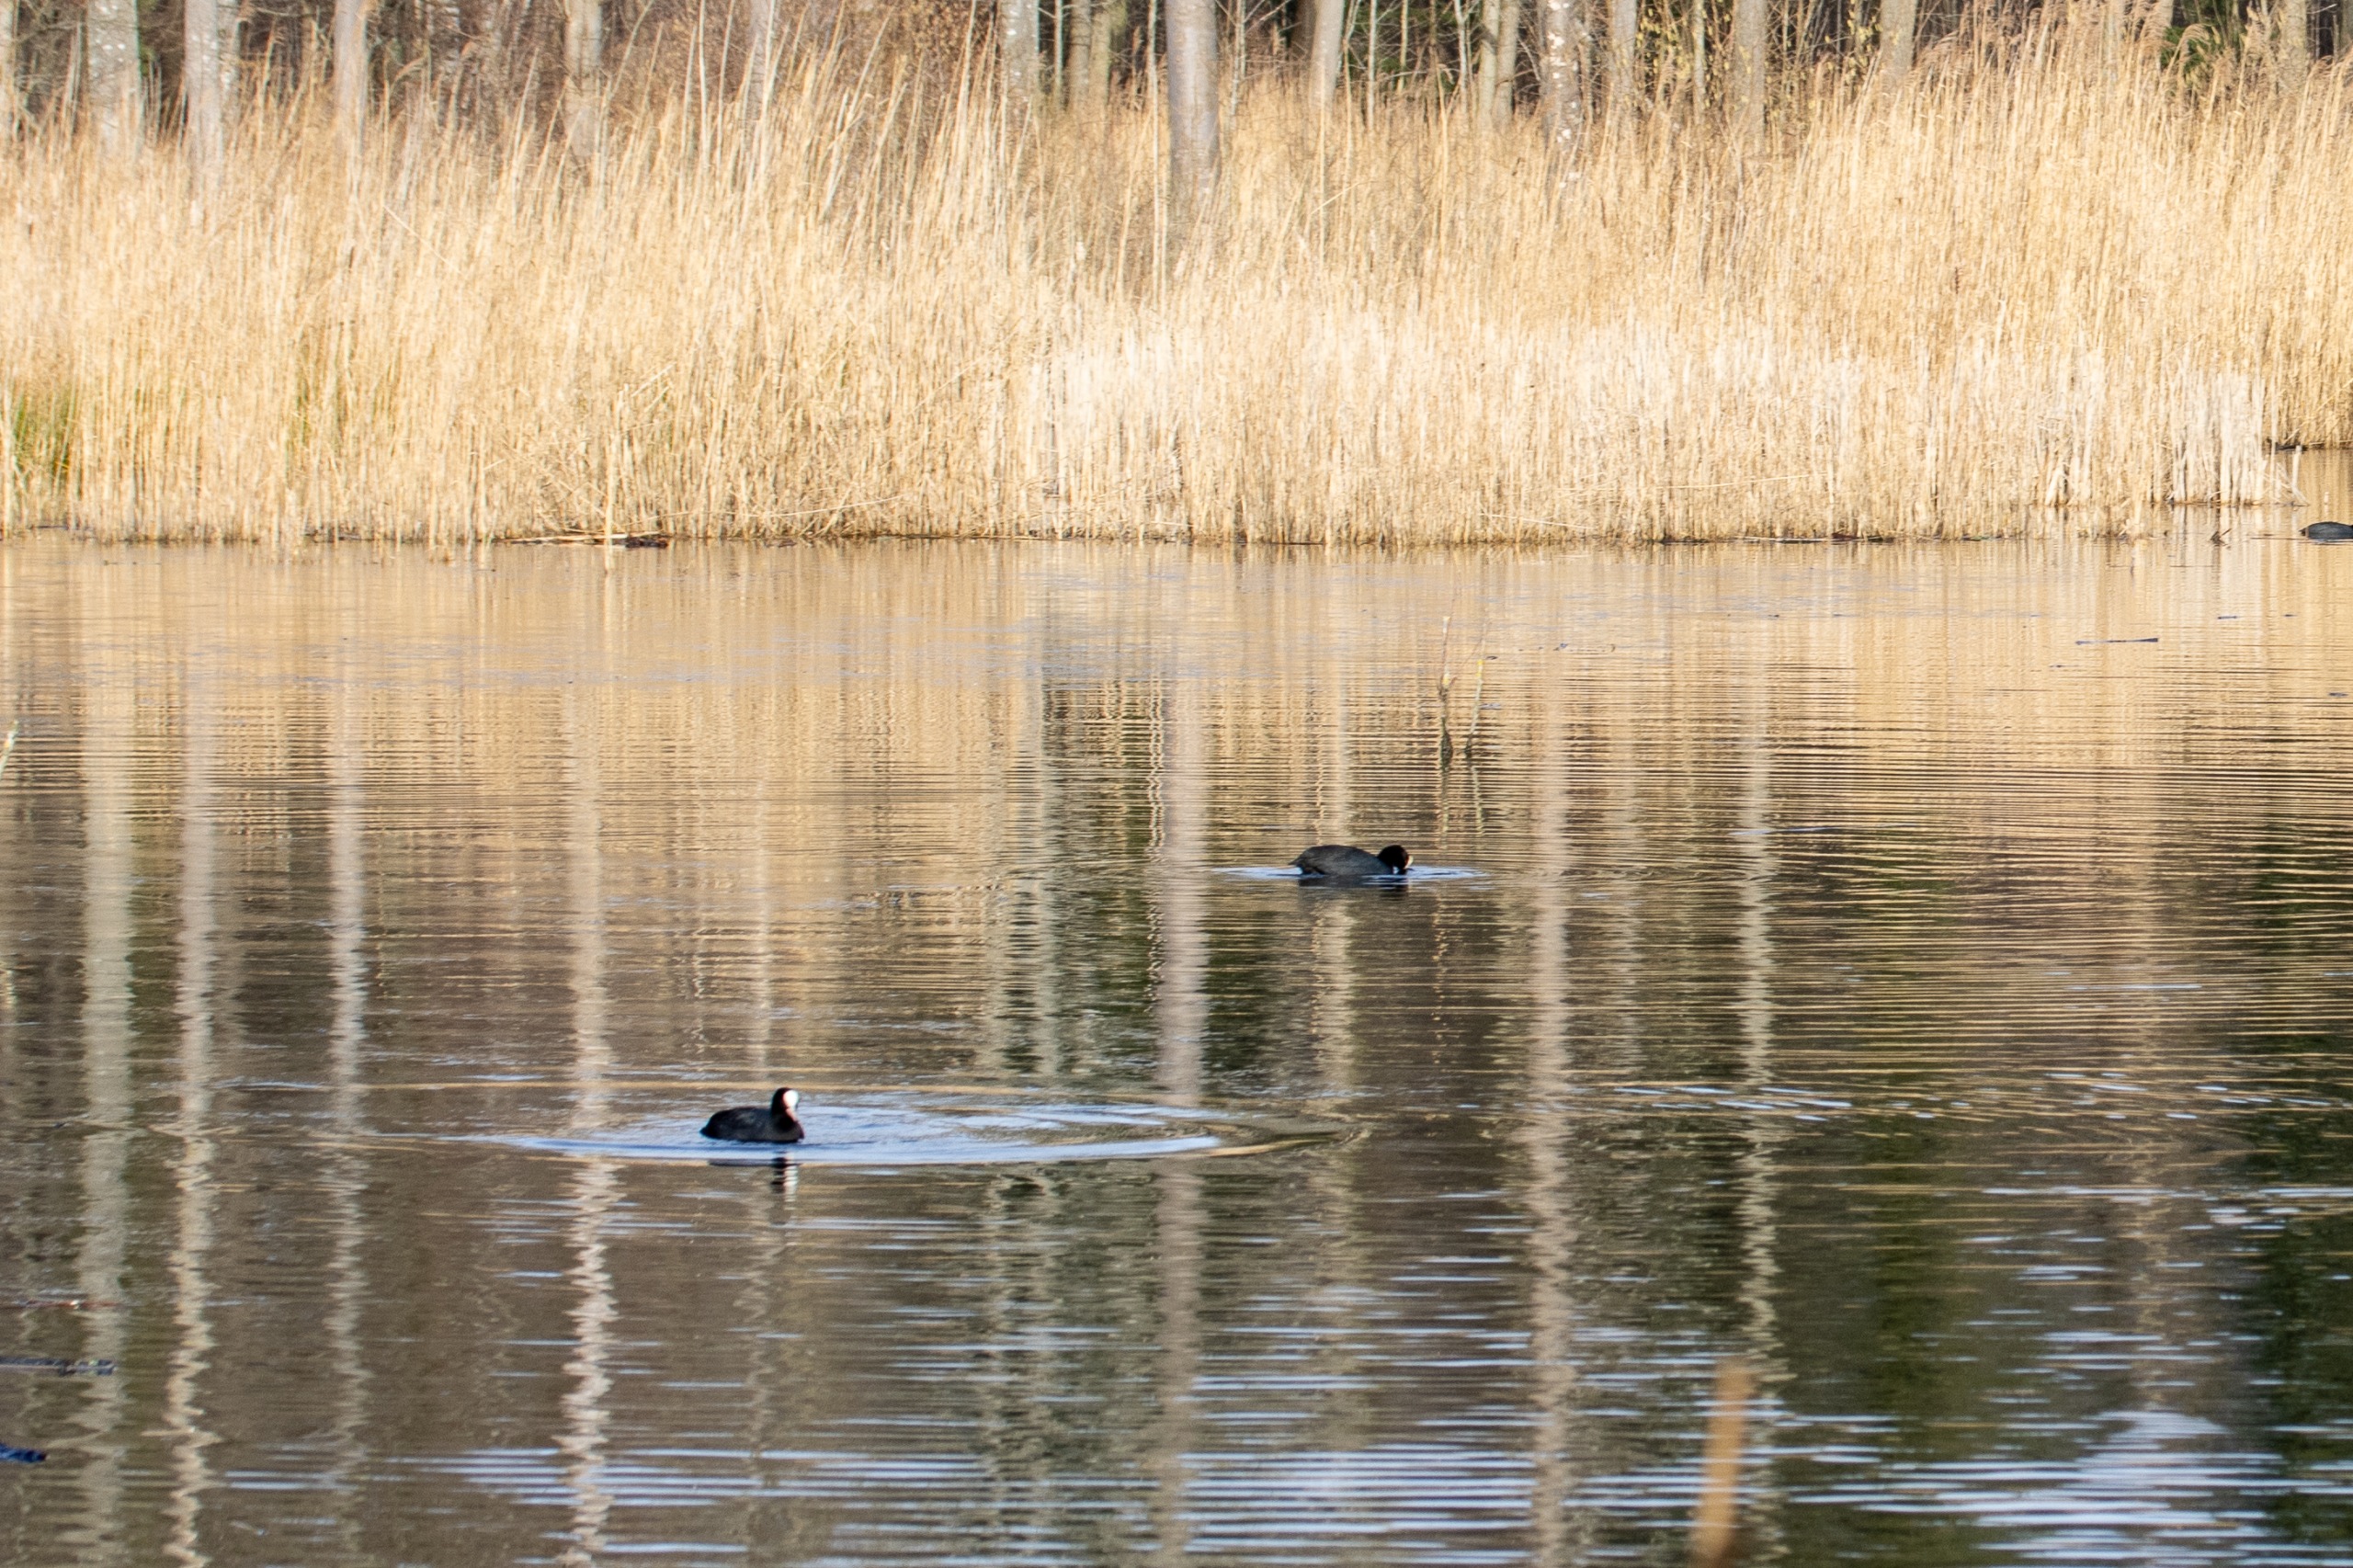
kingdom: Animalia
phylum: Chordata
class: Aves
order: Gruiformes
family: Rallidae
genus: Fulica
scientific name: Fulica atra
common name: Blishøne
